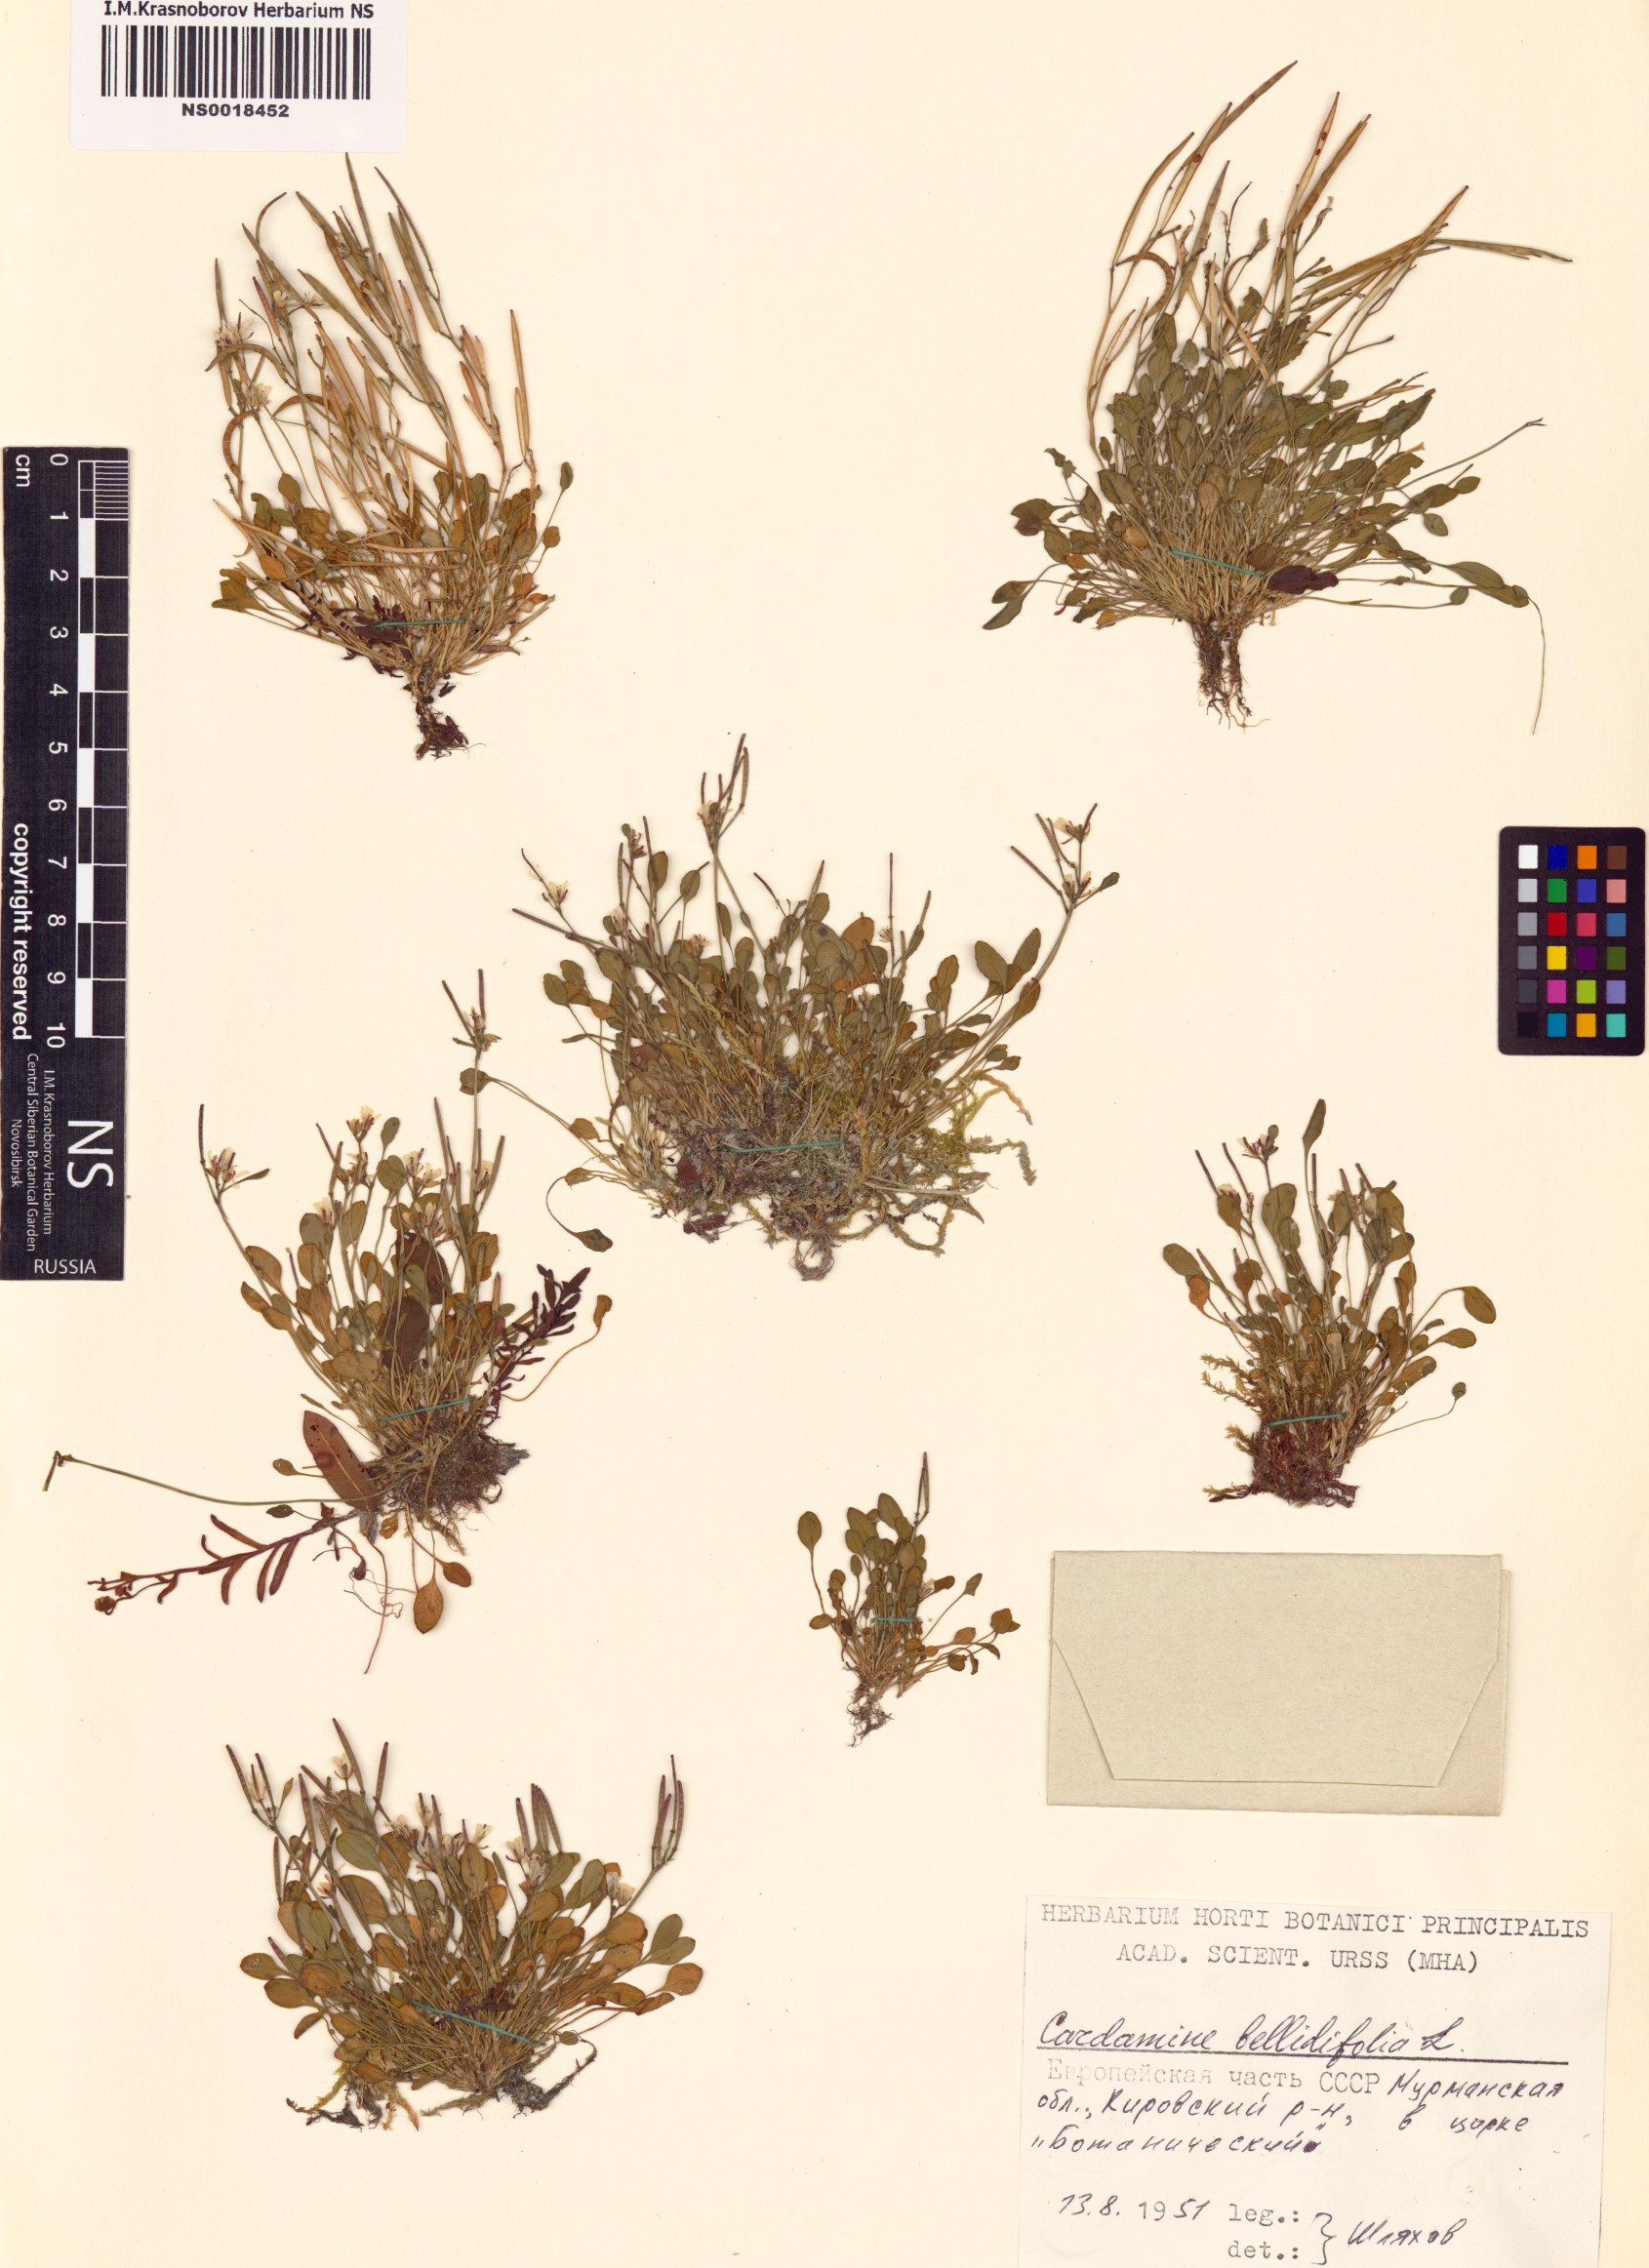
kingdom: Plantae
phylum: Tracheophyta
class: Magnoliopsida
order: Brassicales
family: Brassicaceae
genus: Cardamine
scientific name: Cardamine bellidifolia
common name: Alpine bittercress
